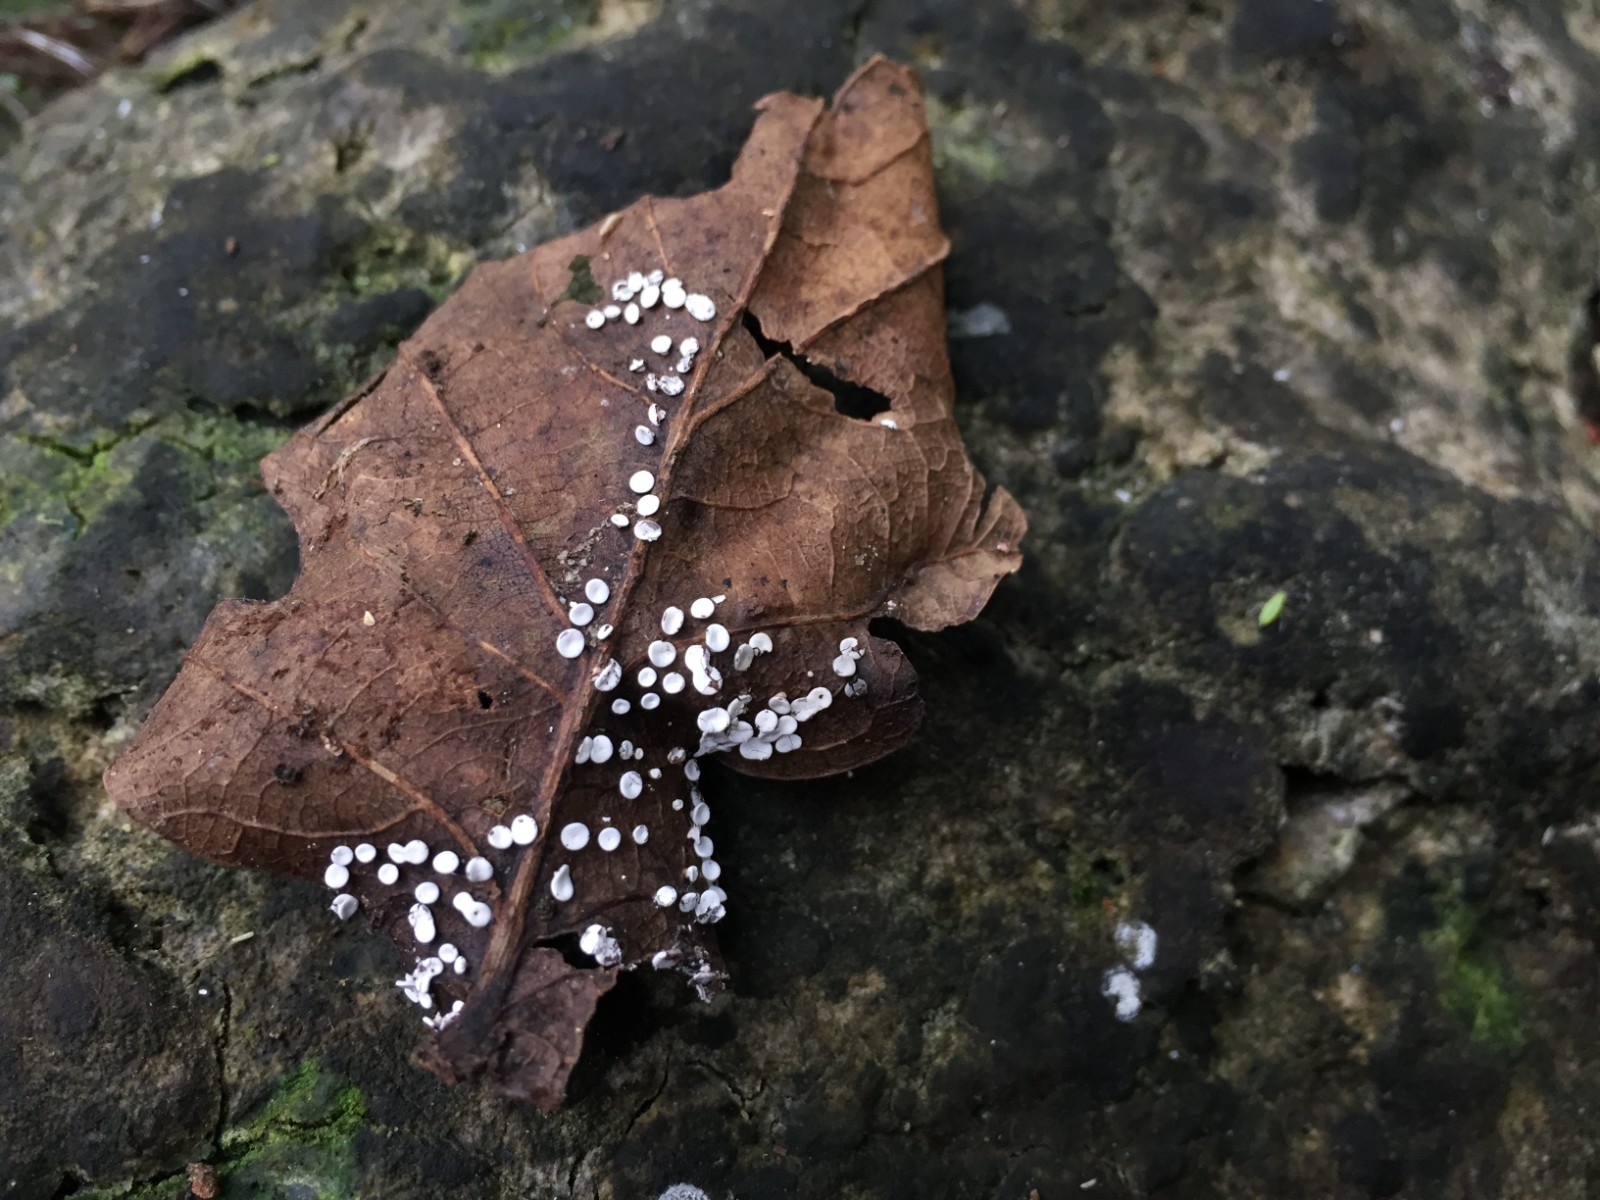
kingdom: Protozoa
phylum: Mycetozoa
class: Myxomycetes
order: Physarales
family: Didymiaceae
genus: Diderma
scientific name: Diderma hemisphaericum
